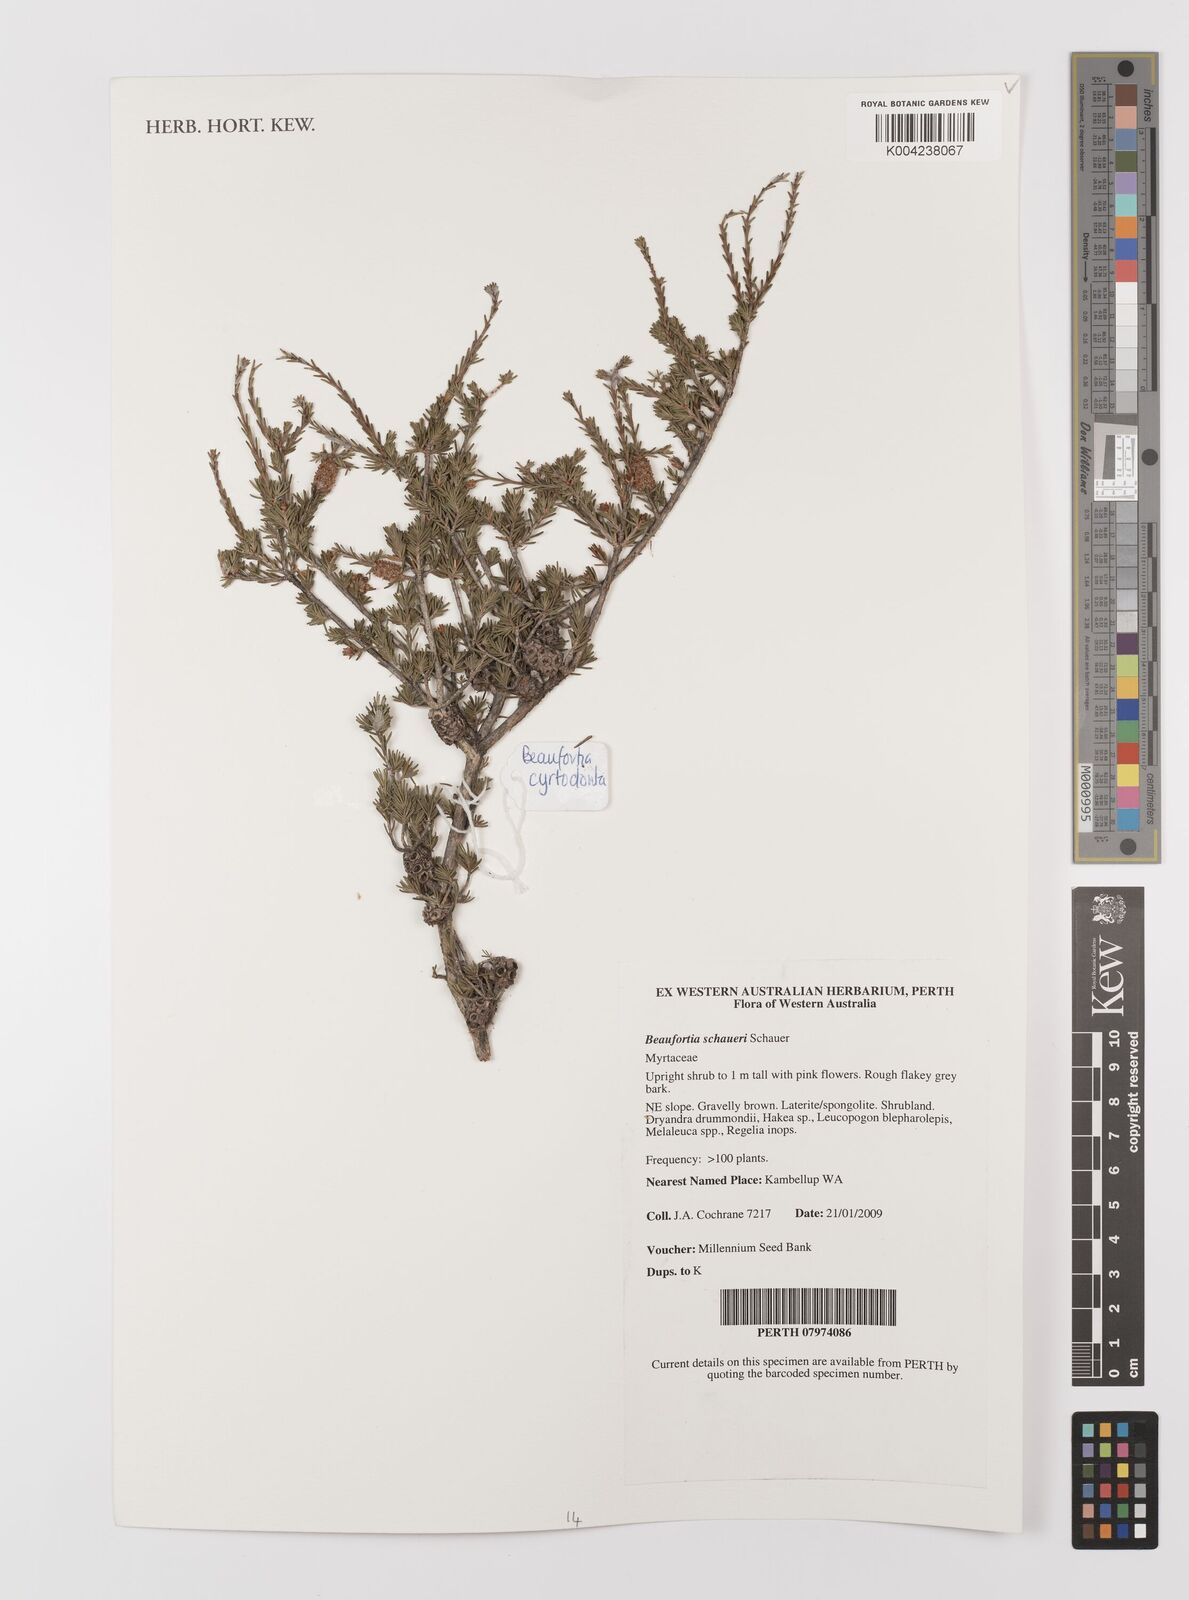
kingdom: Plantae
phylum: Tracheophyta
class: Magnoliopsida
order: Myrtales
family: Myrtaceae
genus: Melaleuca
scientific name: Melaleuca jonesii
